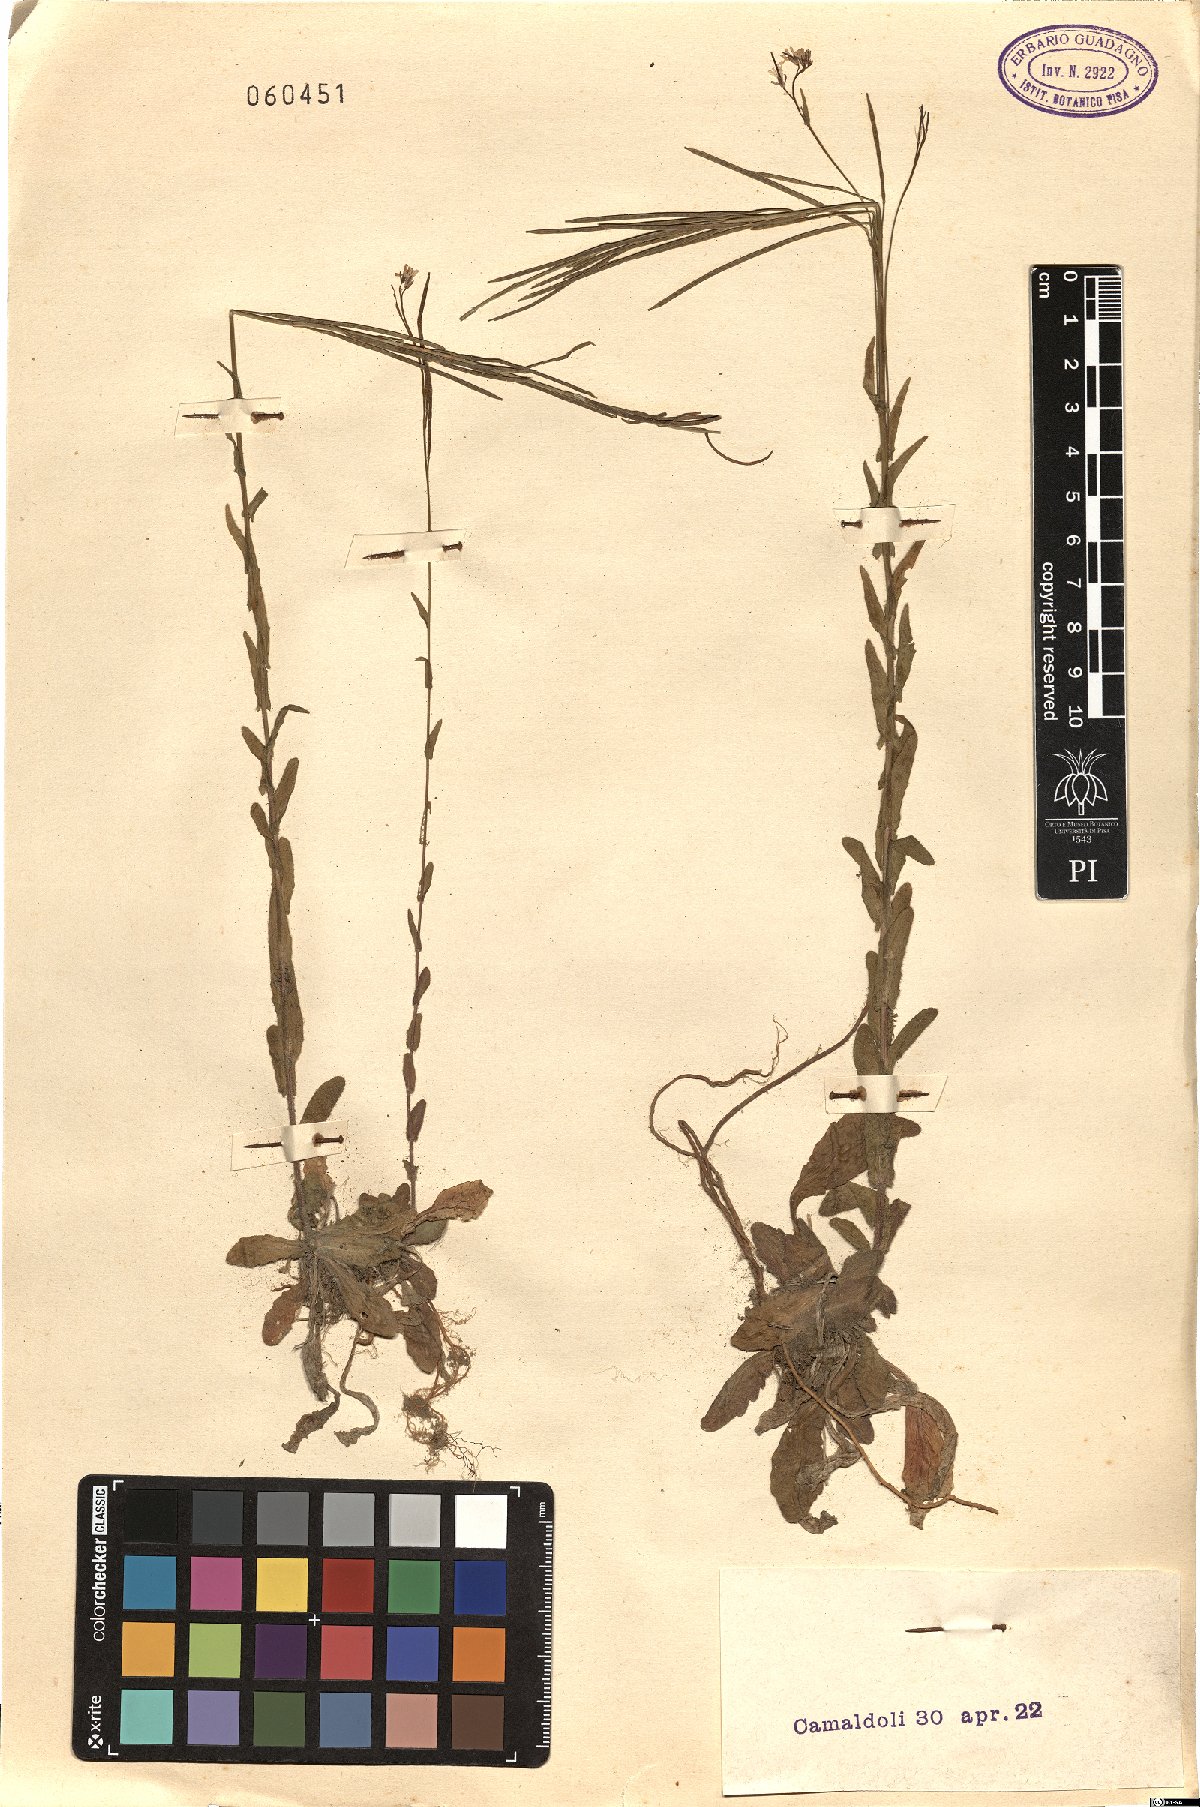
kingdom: Plantae
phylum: Tracheophyta
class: Magnoliopsida
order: Brassicales
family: Brassicaceae
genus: Arabis
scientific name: Arabis sagittata
